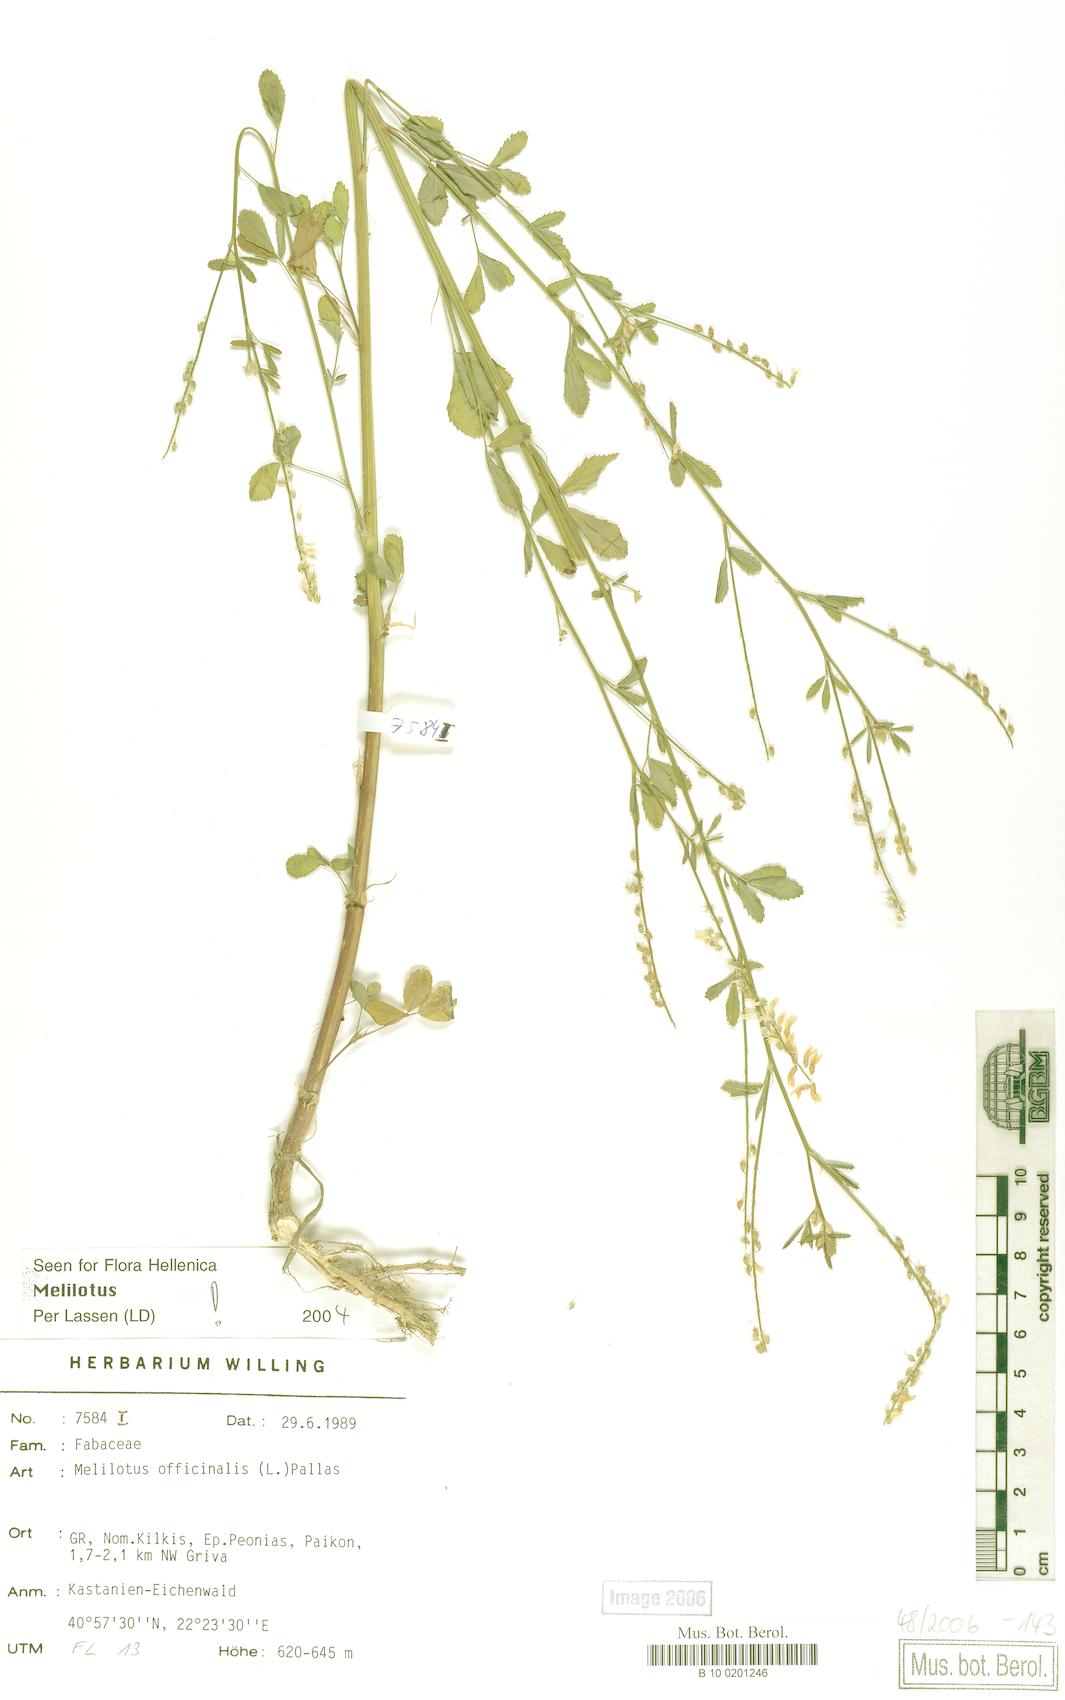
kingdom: Plantae
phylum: Tracheophyta
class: Magnoliopsida
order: Fabales
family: Fabaceae
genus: Melilotus
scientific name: Melilotus officinalis
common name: Sweetclover
